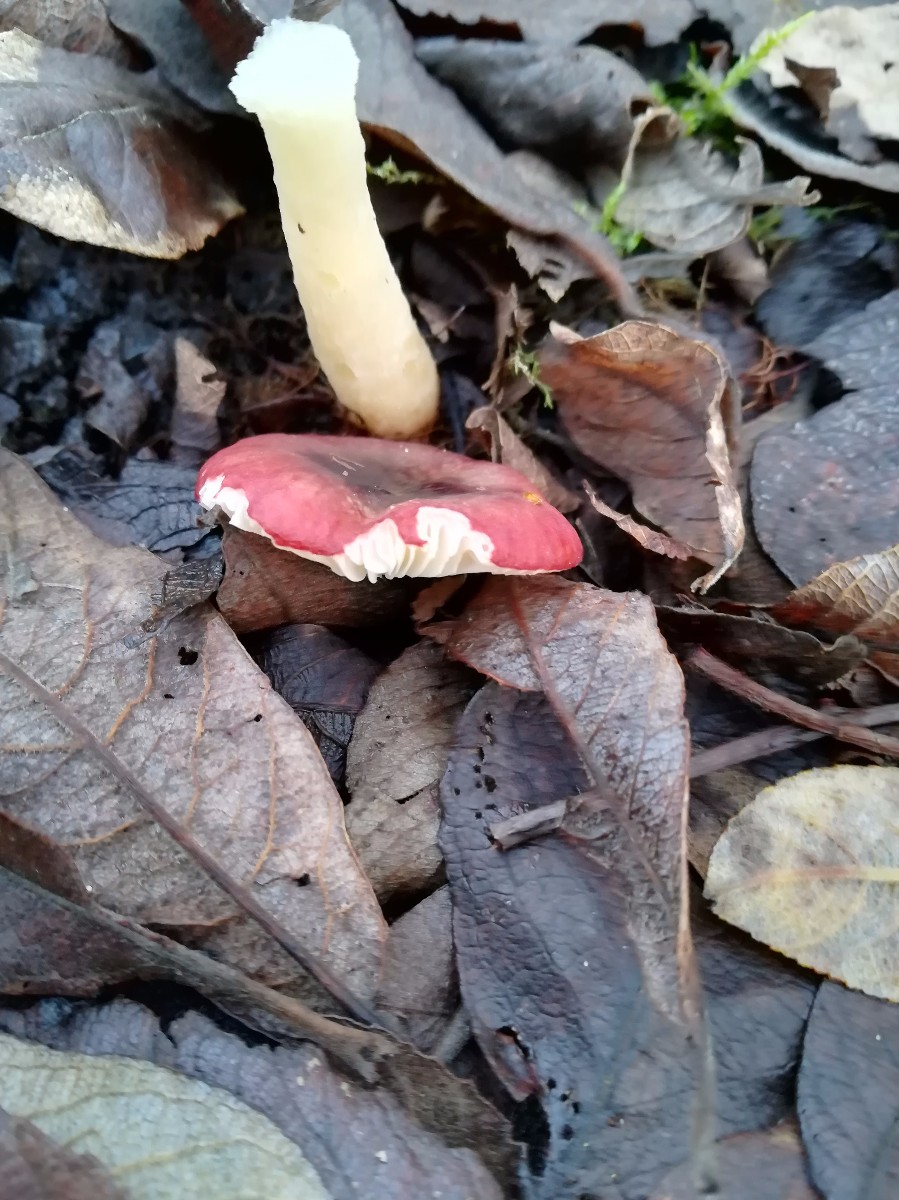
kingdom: Fungi
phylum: Basidiomycota
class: Agaricomycetes
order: Russulales
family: Russulaceae
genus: Russula
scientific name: Russula laccata
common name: klit-skørhat
